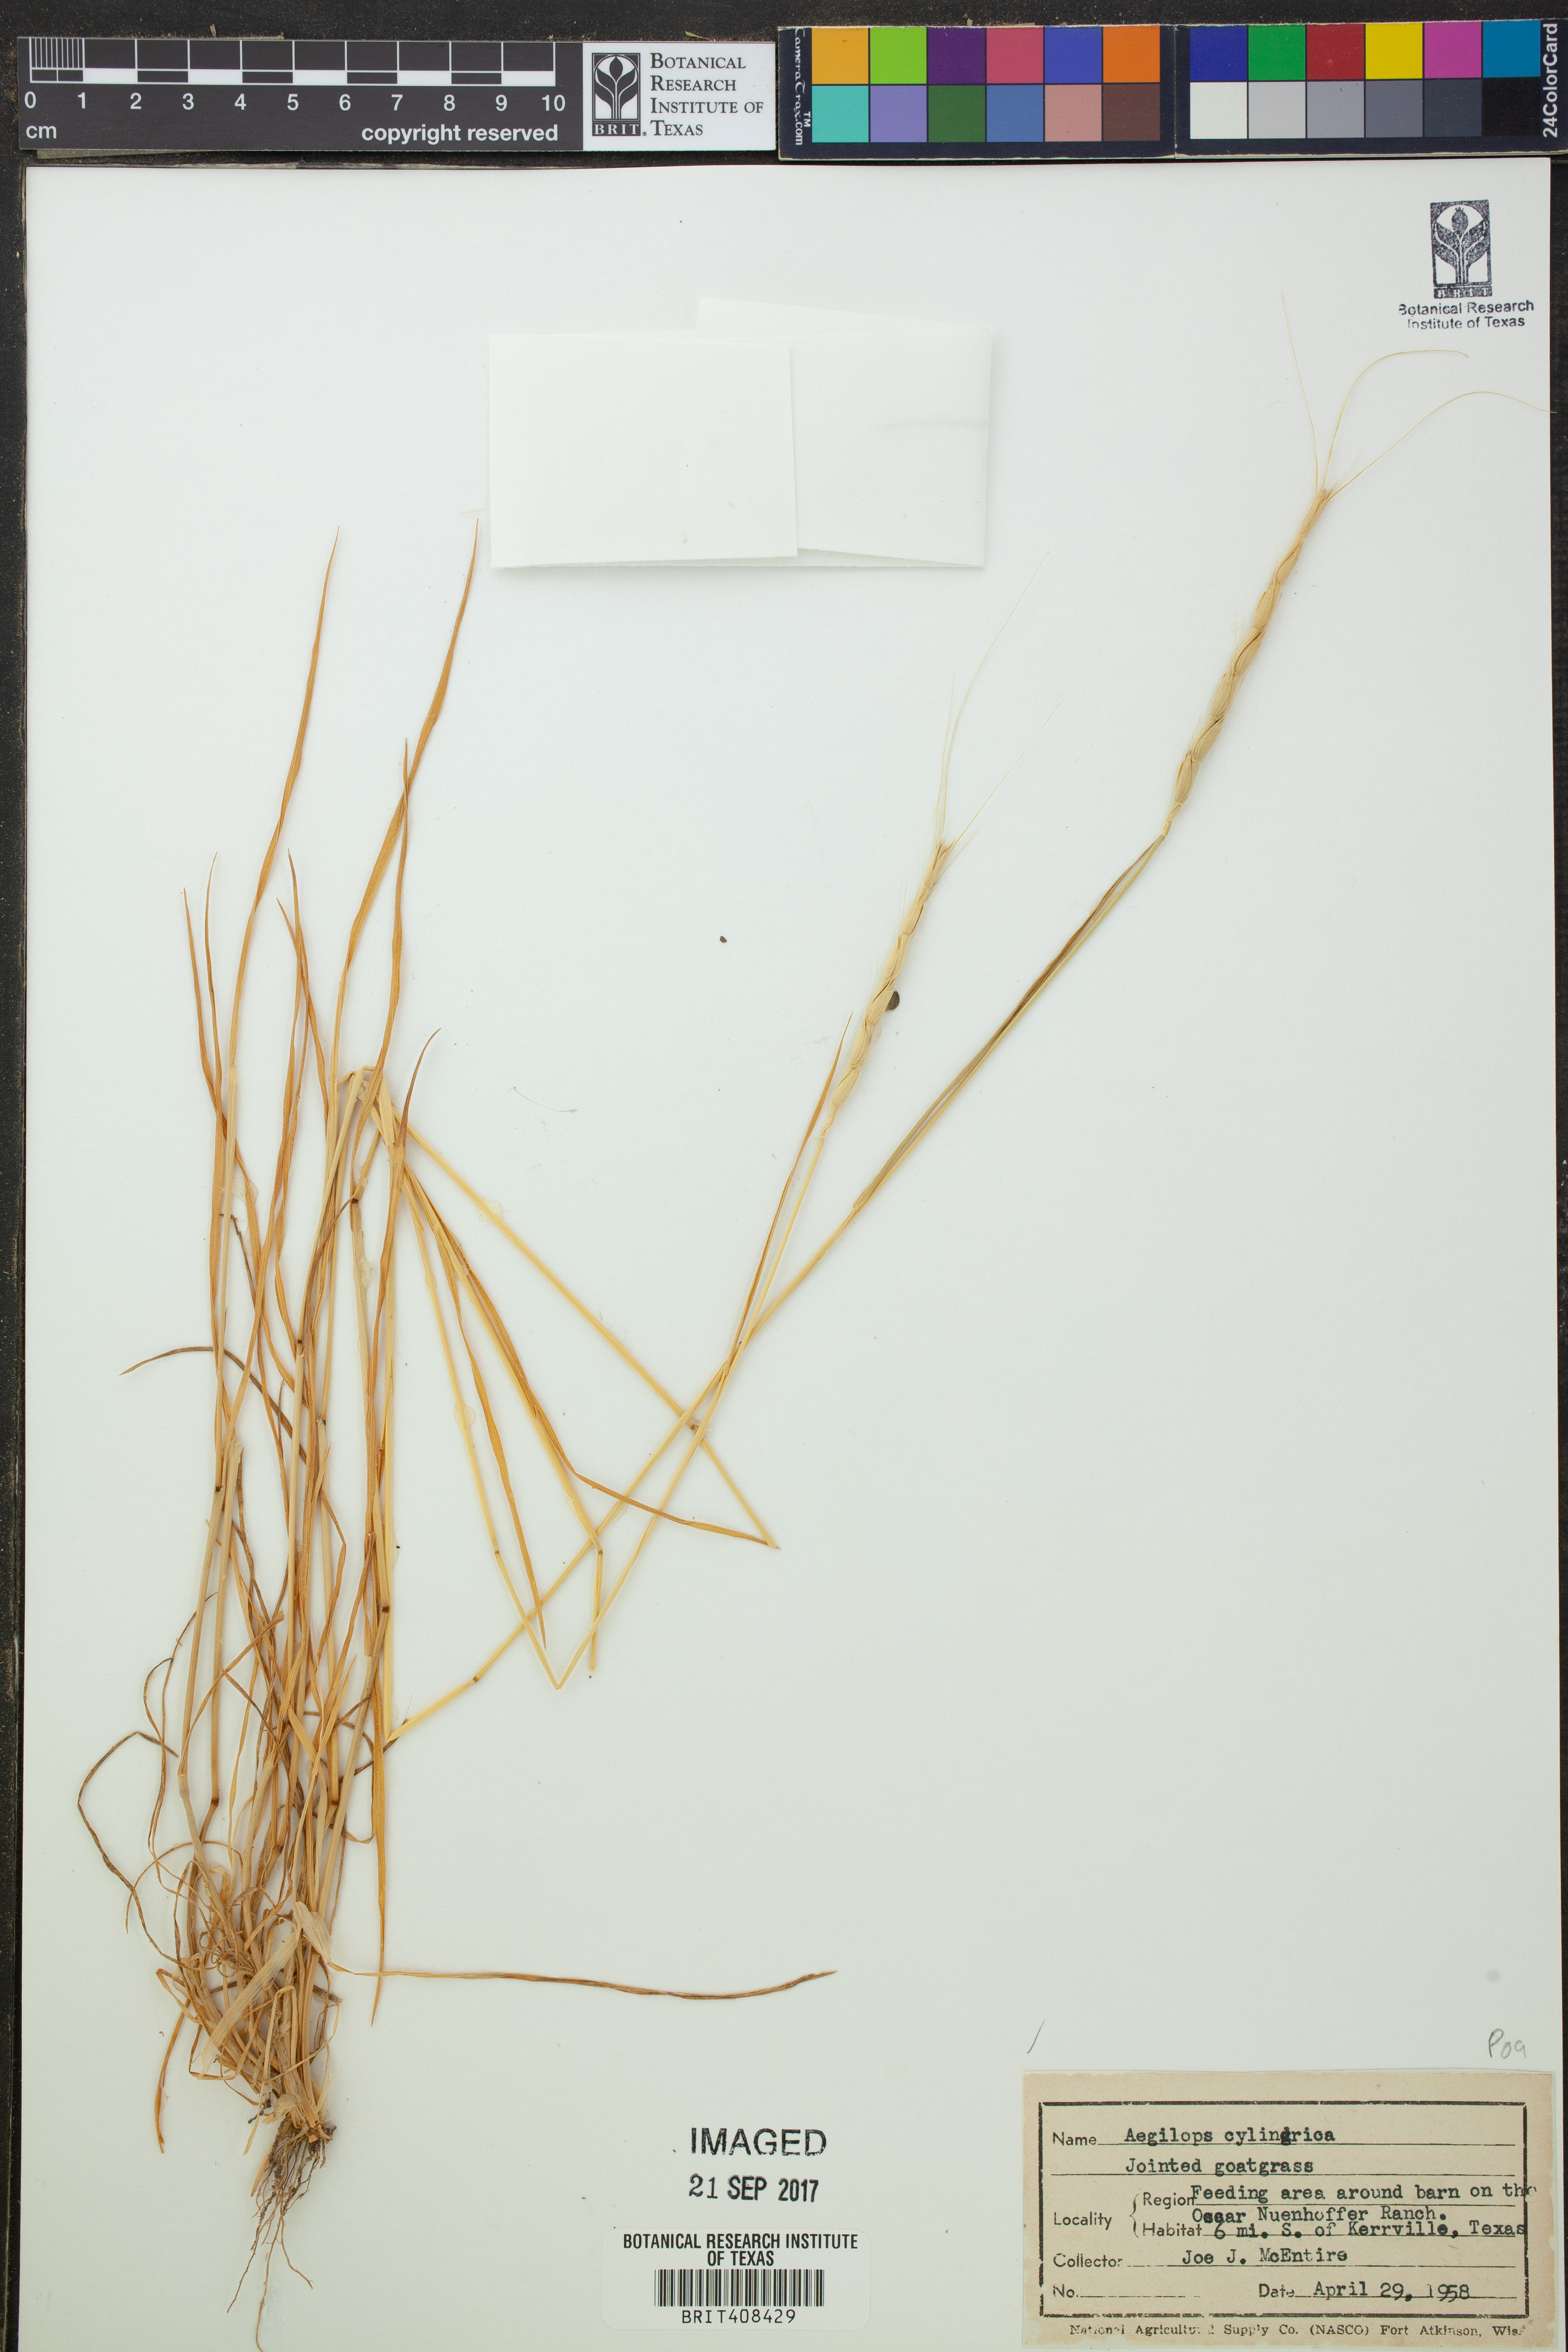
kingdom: Plantae
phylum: Tracheophyta
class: Liliopsida
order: Poales
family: Poaceae
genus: Aegilops
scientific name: Aegilops cylindrica
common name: Jointed goatgrass
